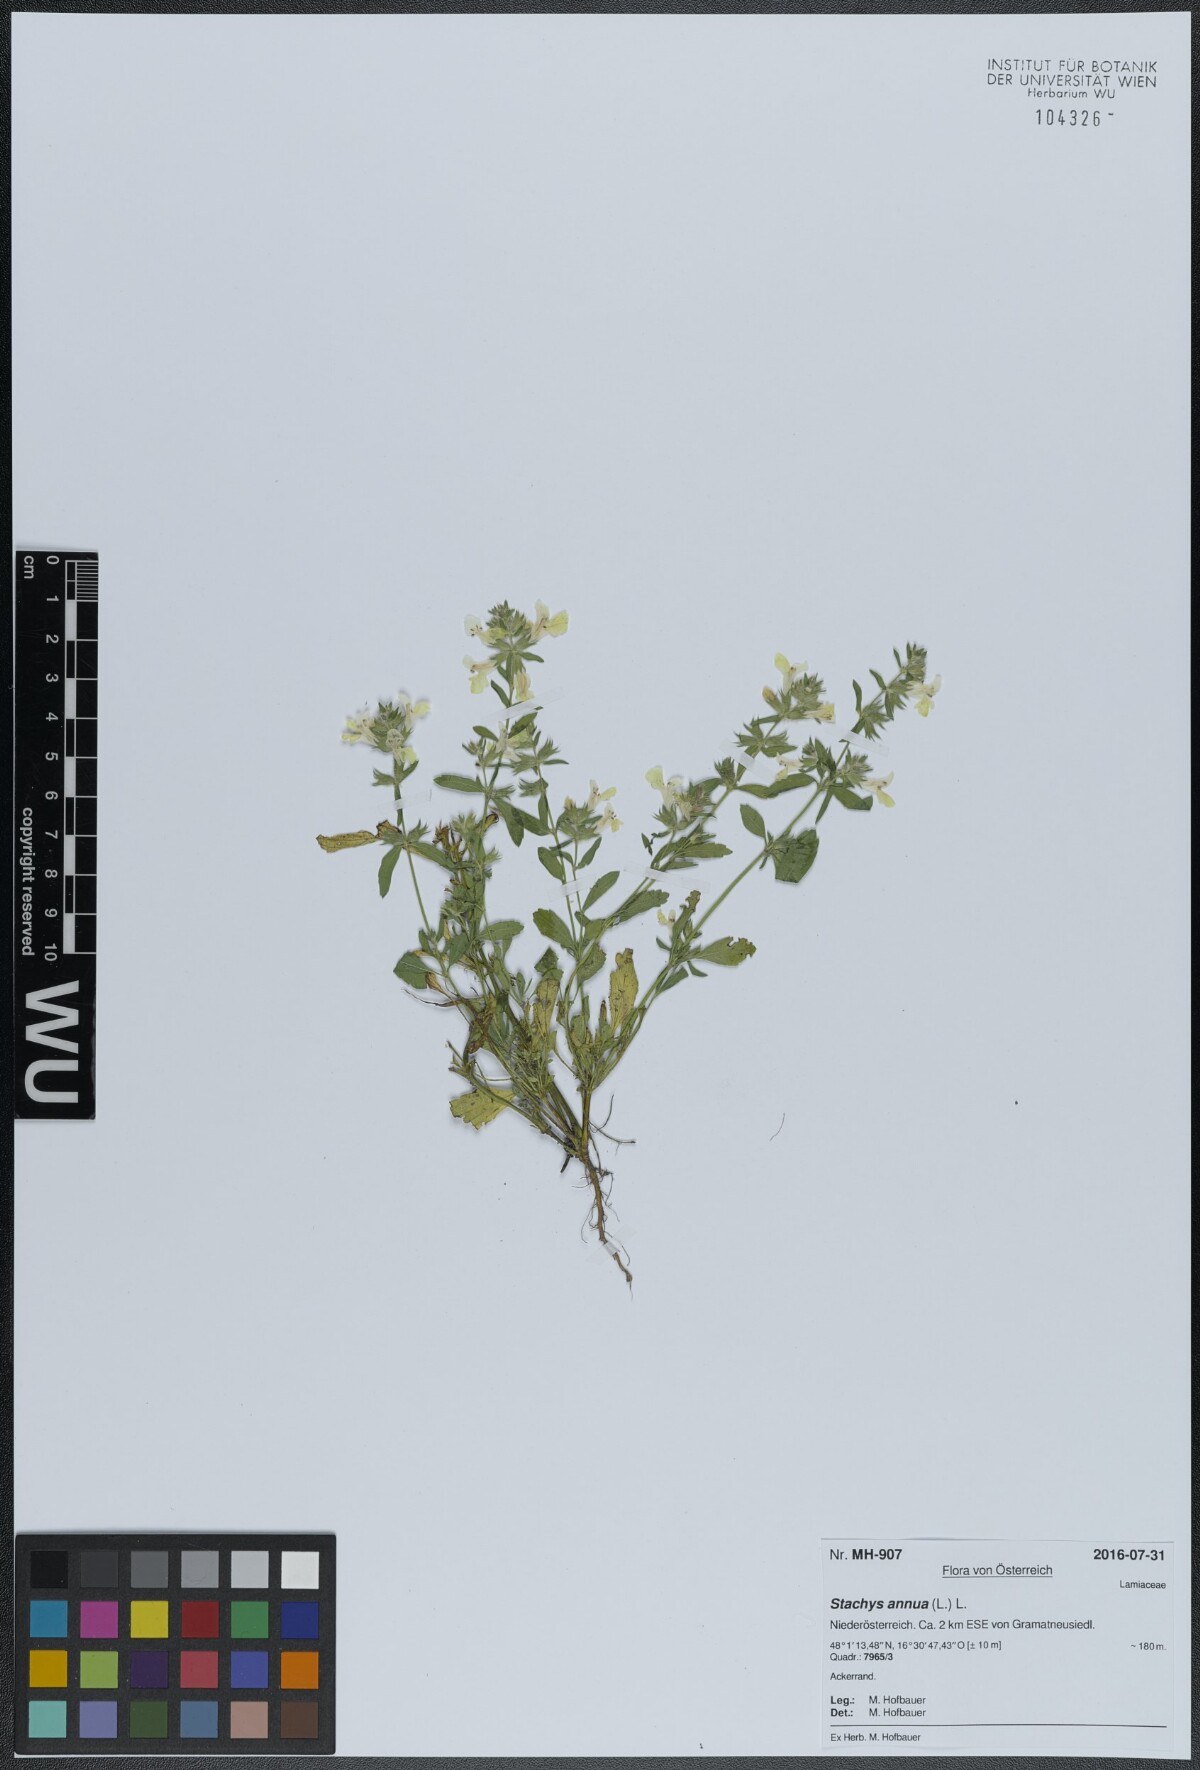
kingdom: Plantae
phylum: Tracheophyta
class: Magnoliopsida
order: Lamiales
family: Lamiaceae
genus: Stachys
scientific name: Stachys annua
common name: Annual yellow-woundwort
